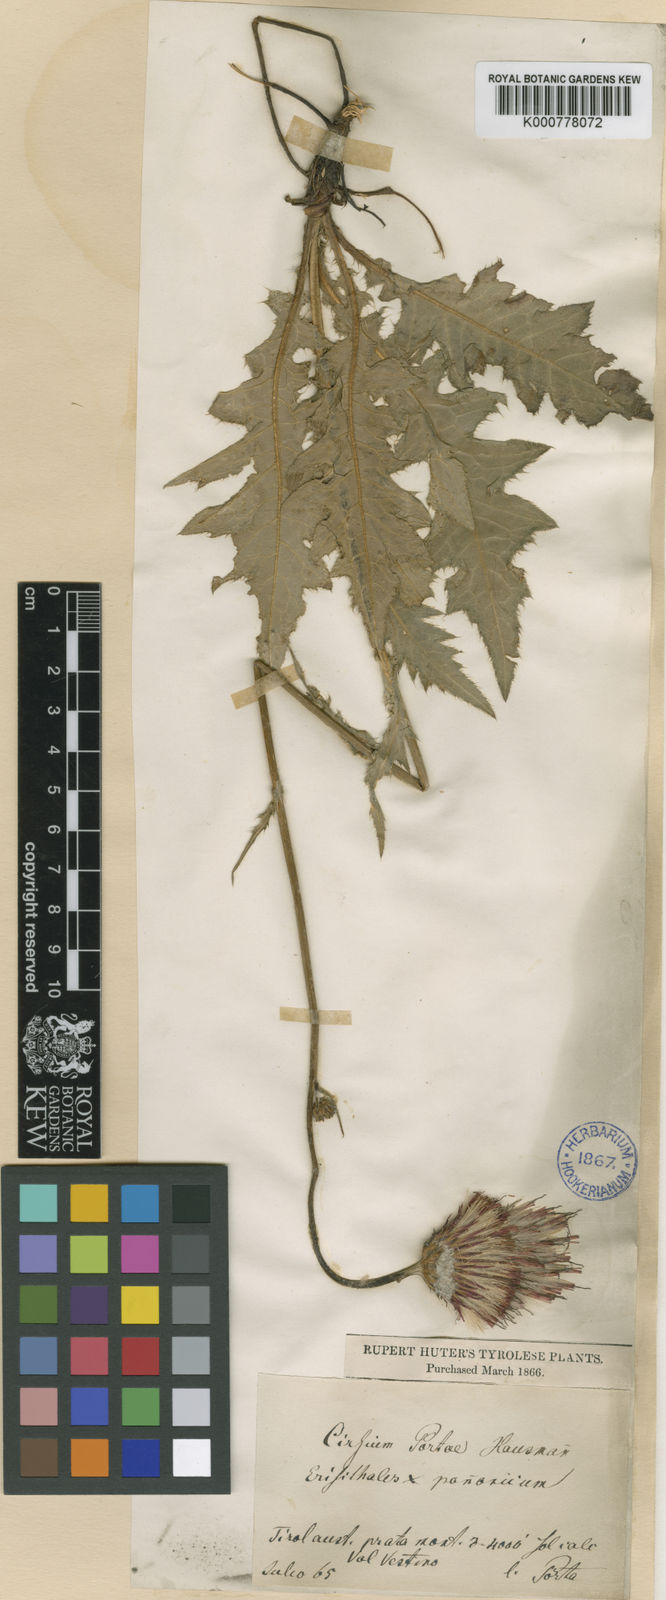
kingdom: Plantae
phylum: Tracheophyta
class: Magnoliopsida
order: Asterales
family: Asteraceae
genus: Cirsium
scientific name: Cirsium erisithales
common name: Yellow thistle
